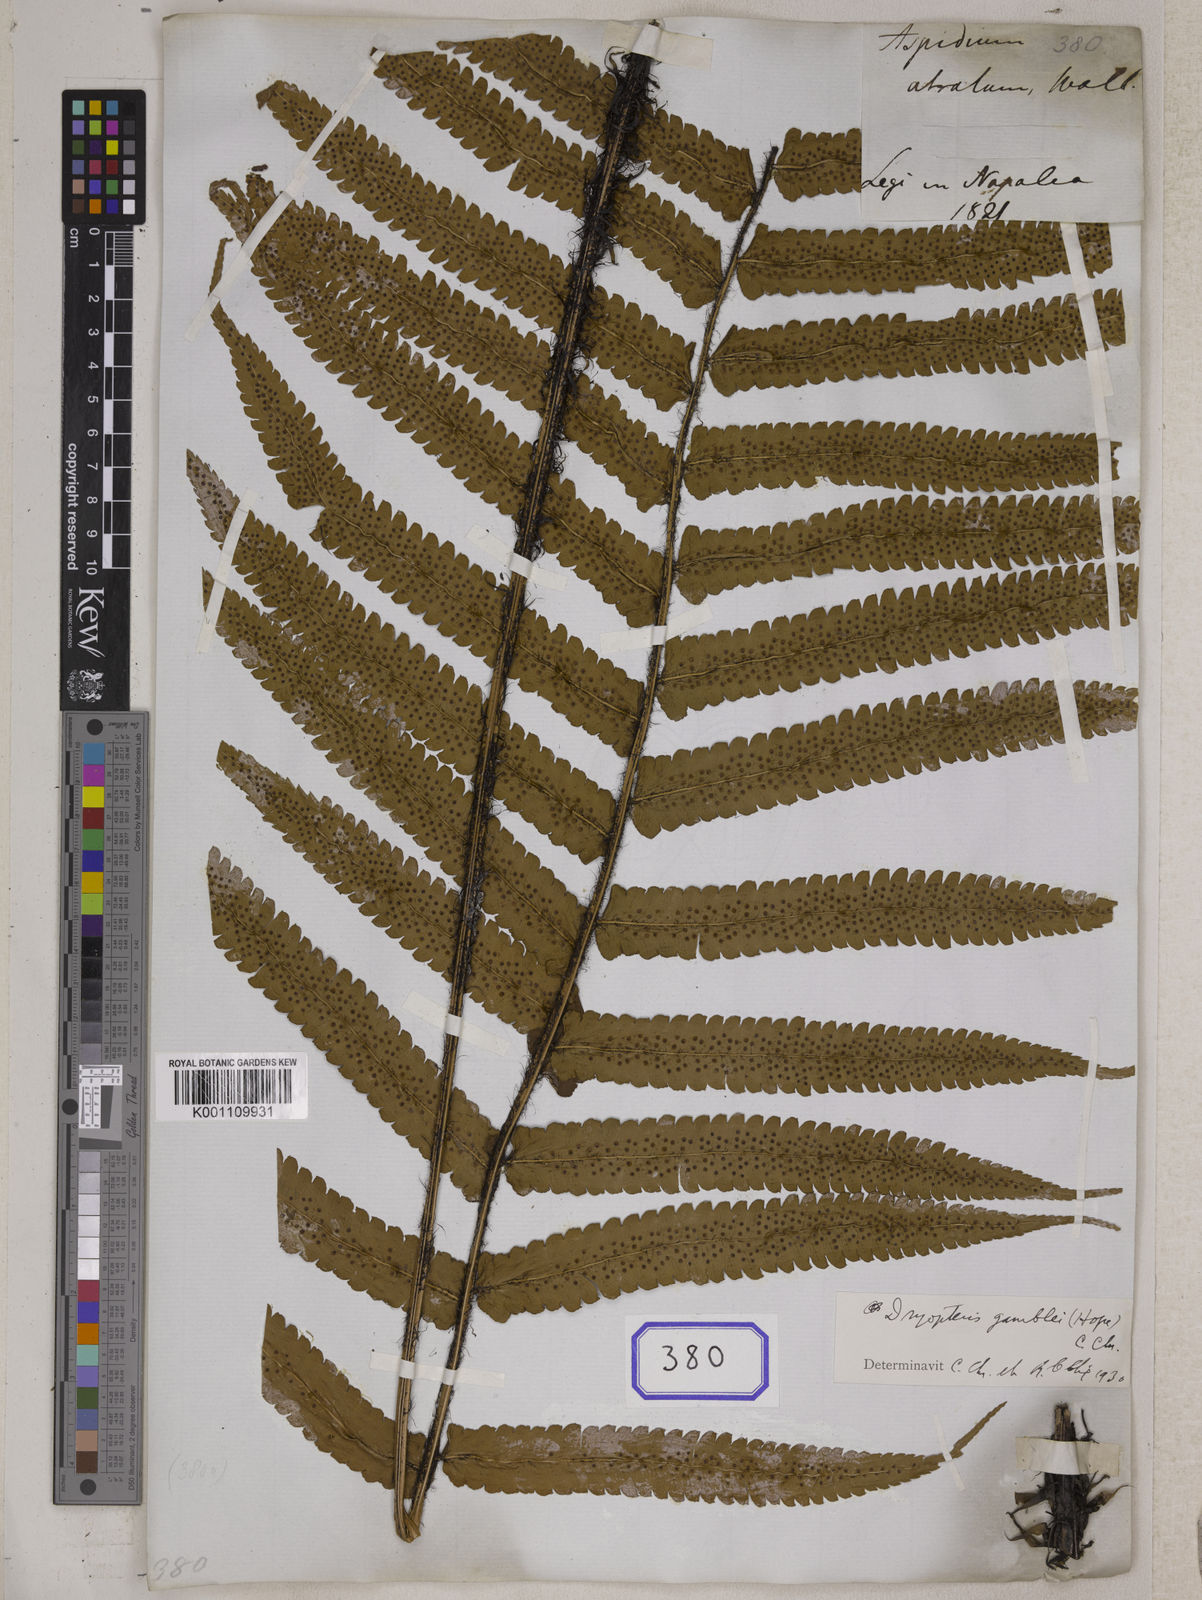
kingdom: Plantae
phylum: Tracheophyta
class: Polypodiopsida
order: Polypodiales
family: Tectariaceae
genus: Tectaria
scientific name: Tectaria Aspidium spec
